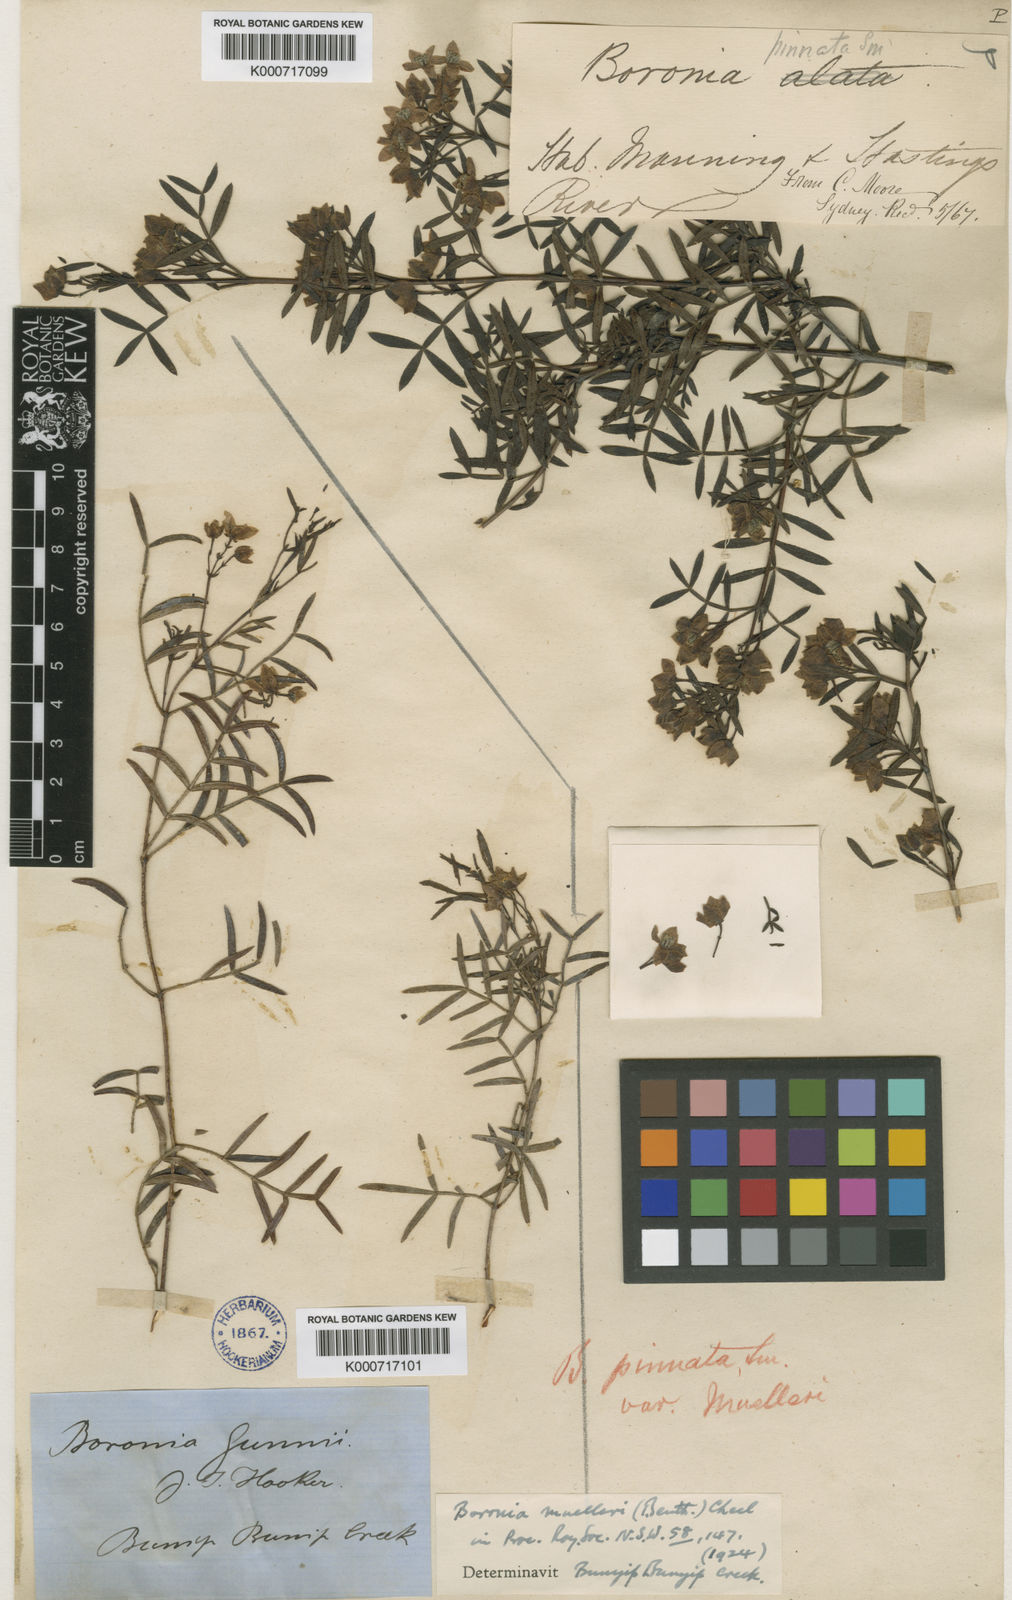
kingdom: Plantae
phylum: Tracheophyta
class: Magnoliopsida
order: Sapindales
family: Rutaceae
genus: Boronia
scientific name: Boronia muelleri
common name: Forest boronia
